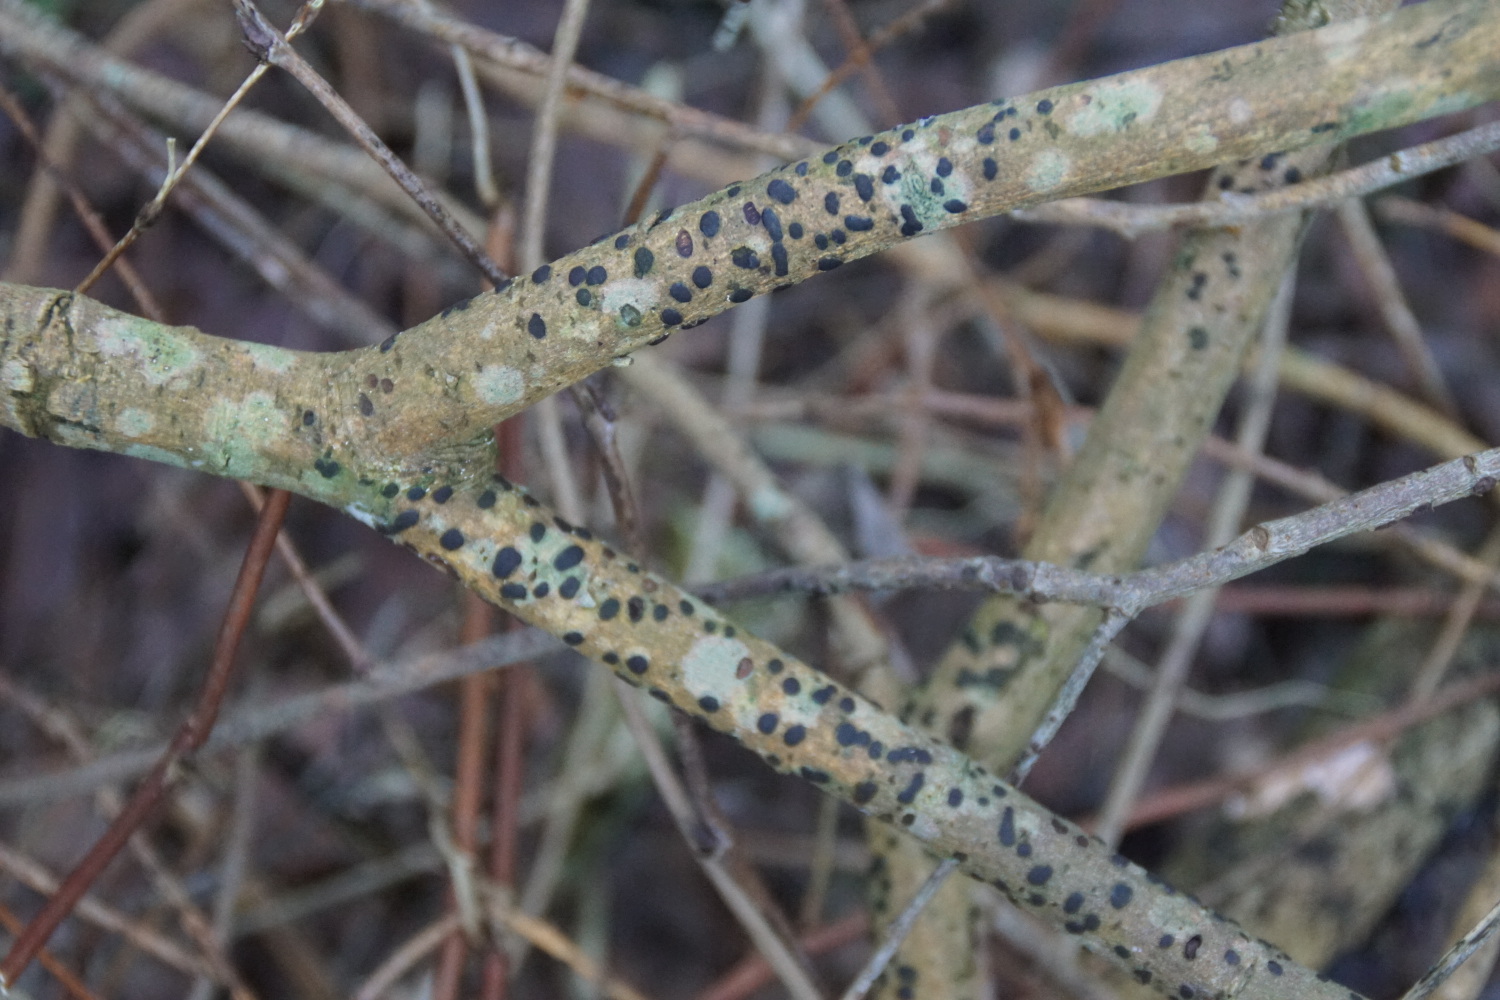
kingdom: Fungi
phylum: Ascomycota
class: Sordariomycetes
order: Xylariales
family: Diatrypaceae
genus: Diatrype
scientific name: Diatrype bullata
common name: pile-kulskorpe
